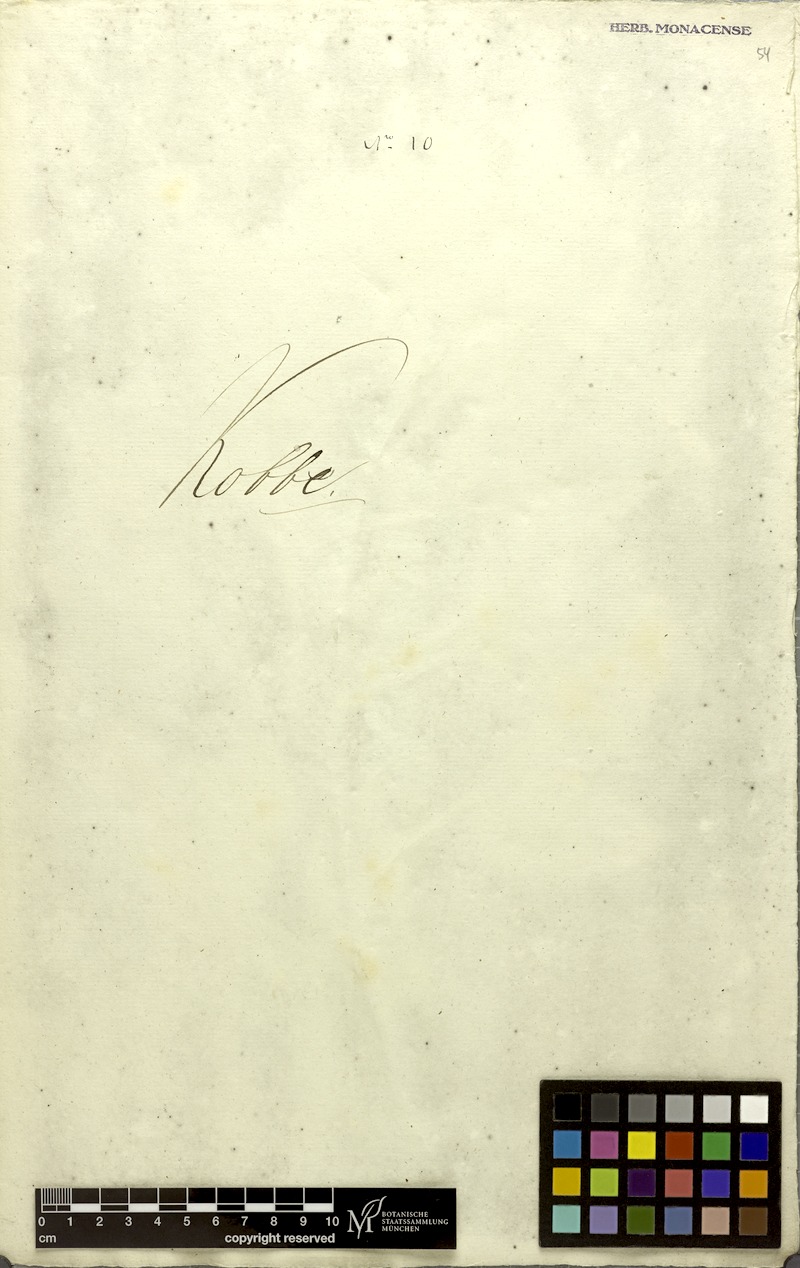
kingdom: Plantae
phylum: Tracheophyta
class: Magnoliopsida
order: Sapindales
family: Sapindaceae
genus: Allophylus
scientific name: Allophylus cobbe
